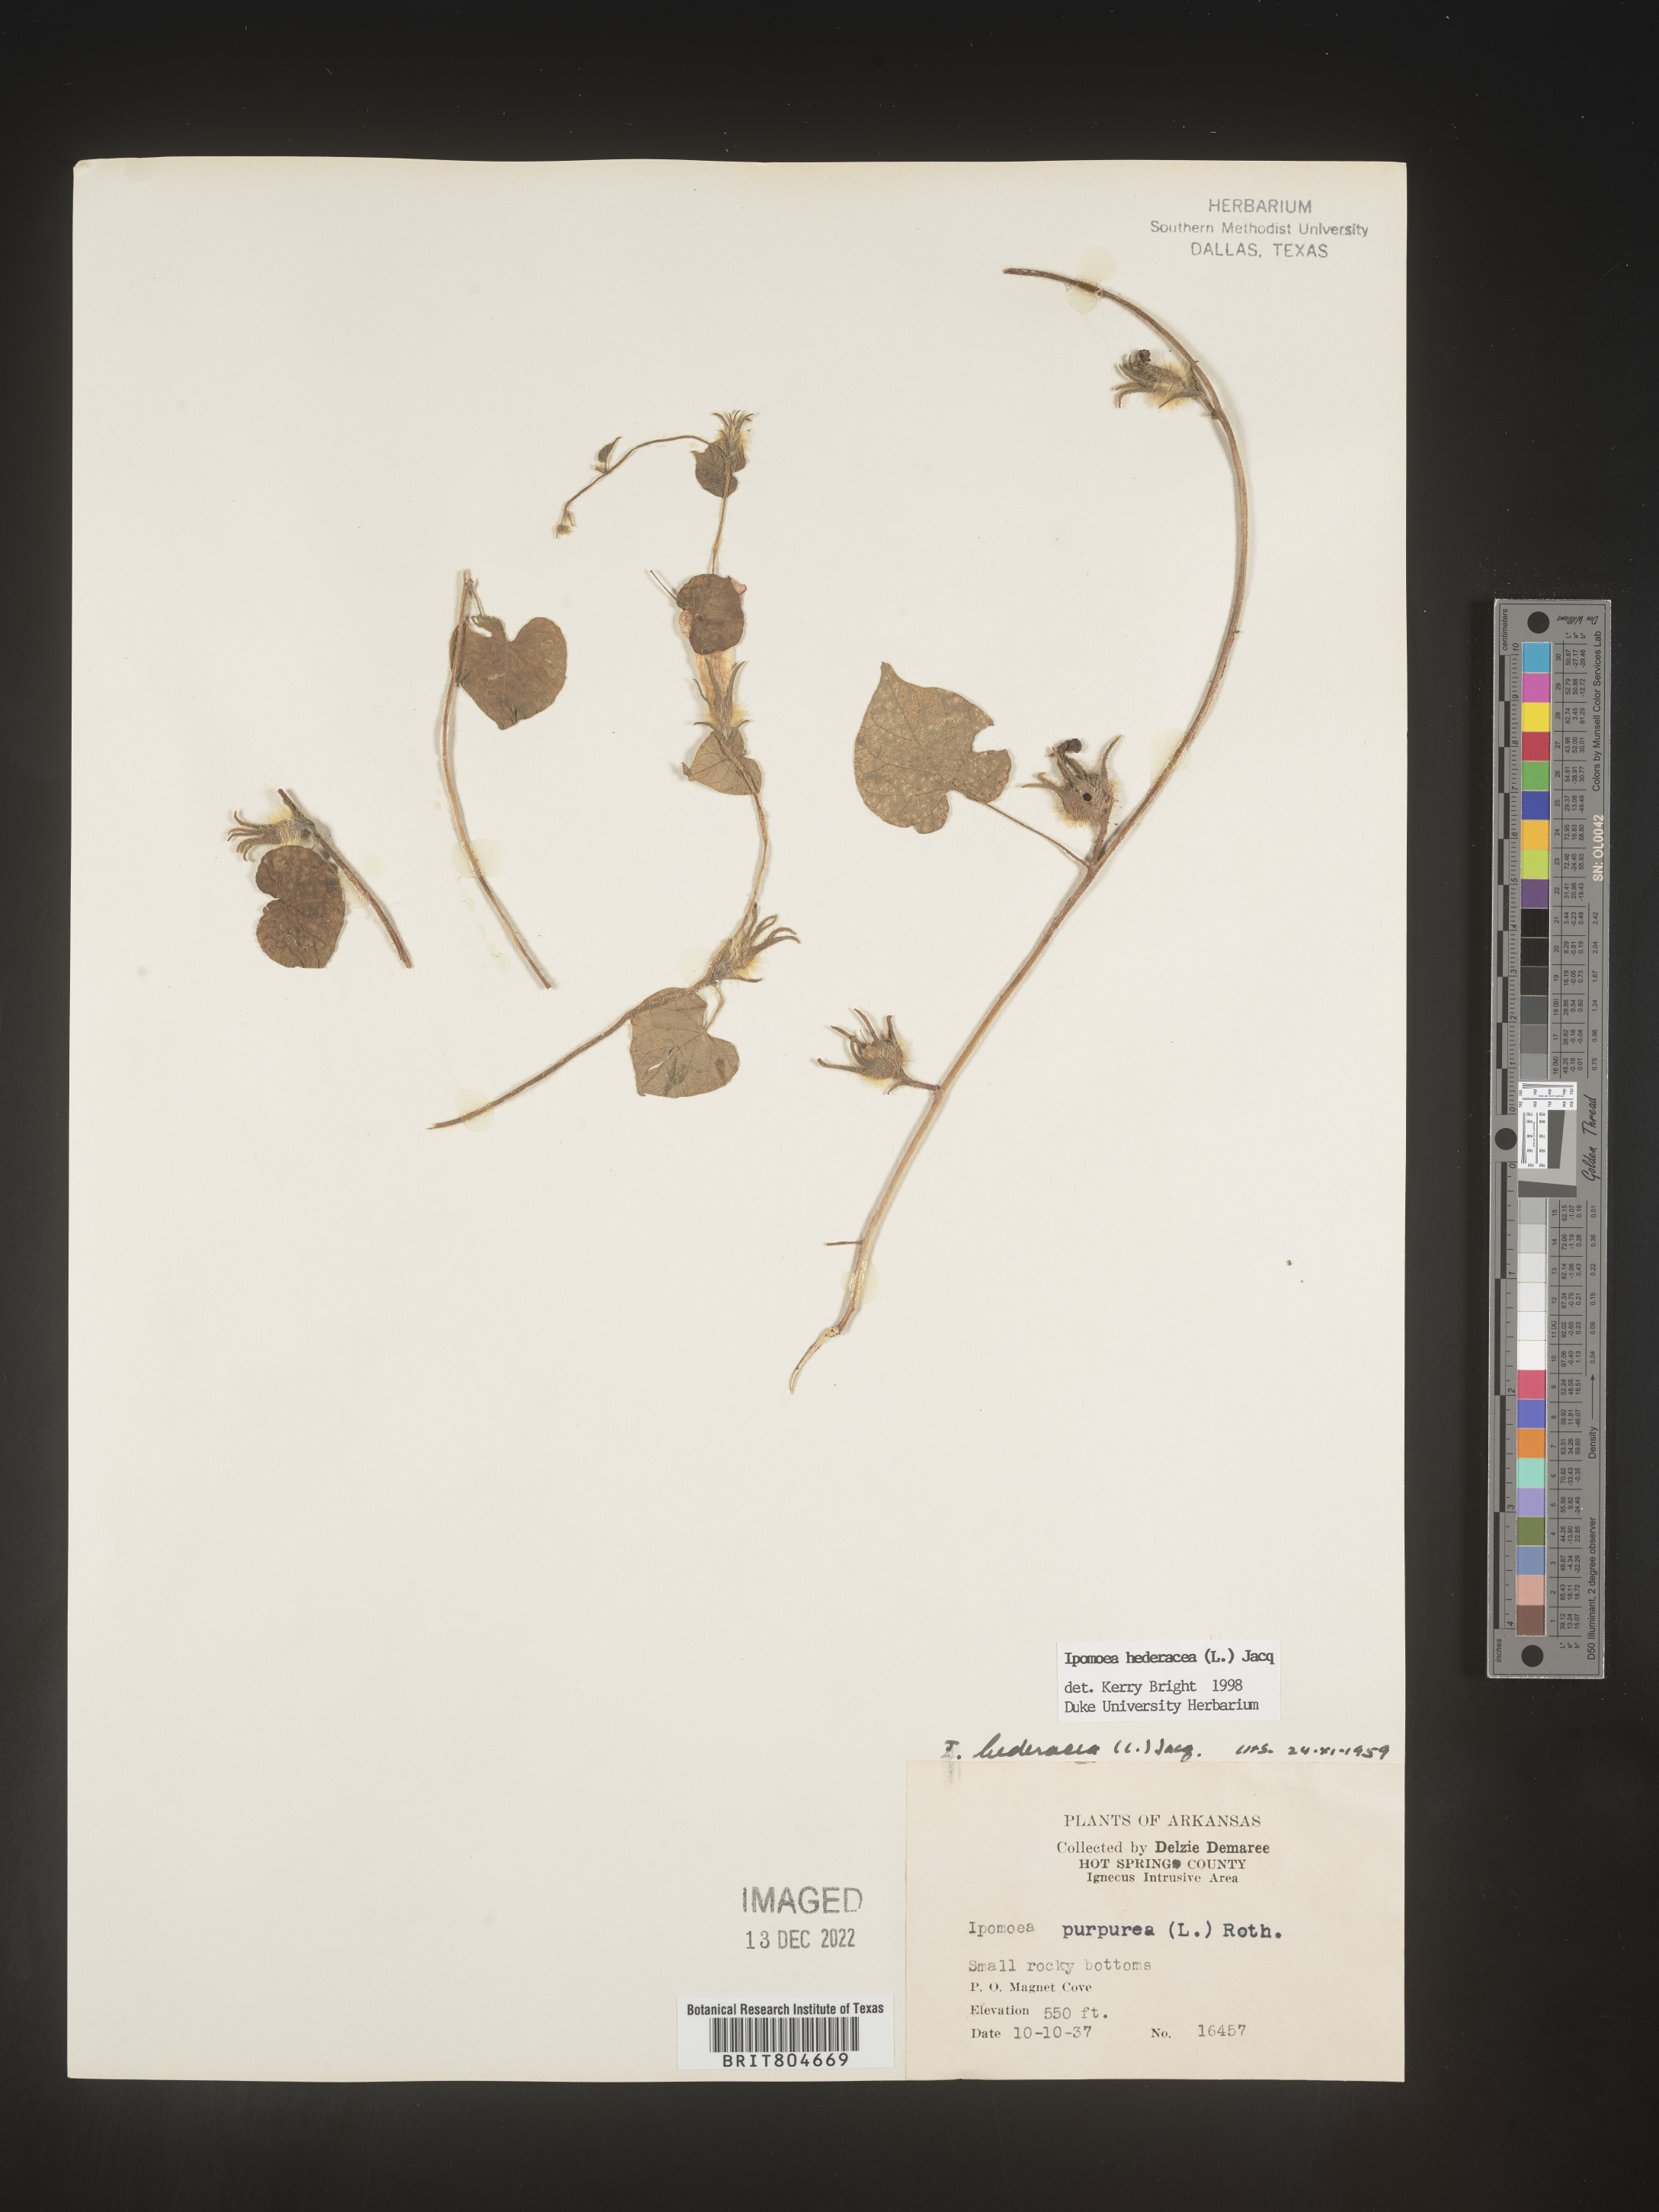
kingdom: Plantae
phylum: Tracheophyta
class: Magnoliopsida
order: Solanales
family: Convolvulaceae
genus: Ipomoea
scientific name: Ipomoea hederacea
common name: Ivy-leaved morning-glory
